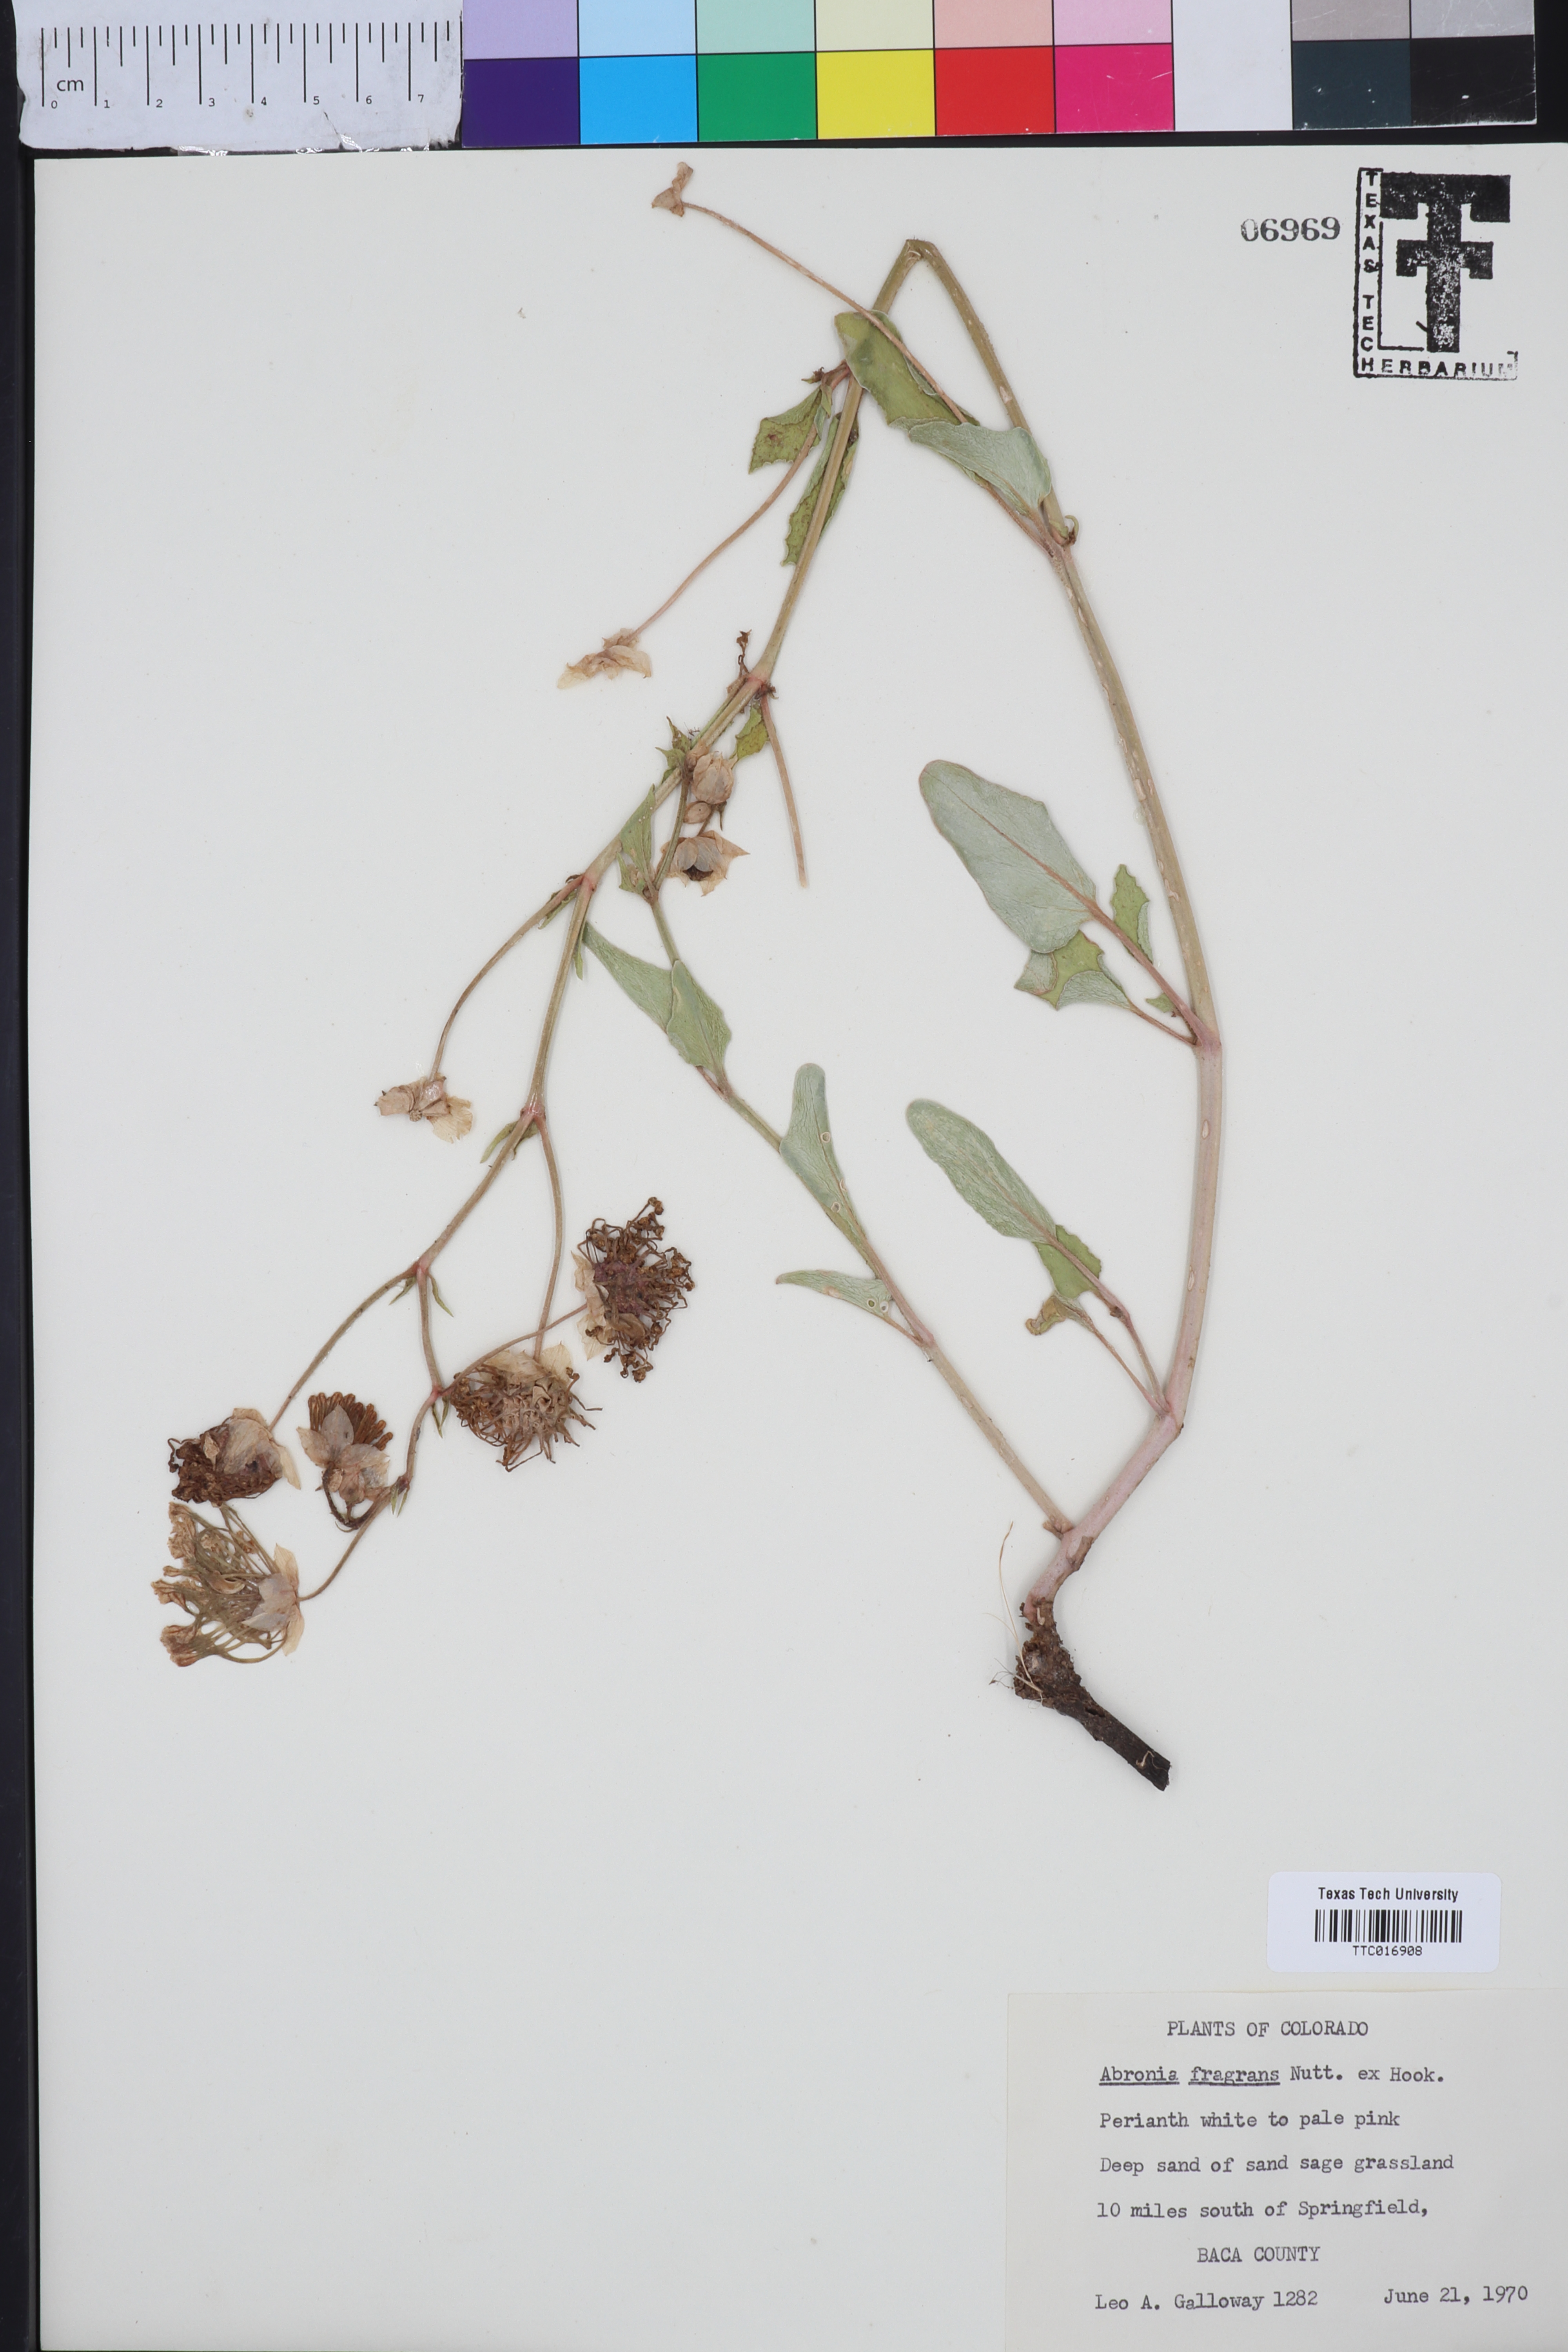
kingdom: Plantae
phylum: Tracheophyta
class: Magnoliopsida
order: Caryophyllales
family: Nyctaginaceae
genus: Abronia
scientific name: Abronia fragrans
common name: Fragrant sand-verbena
